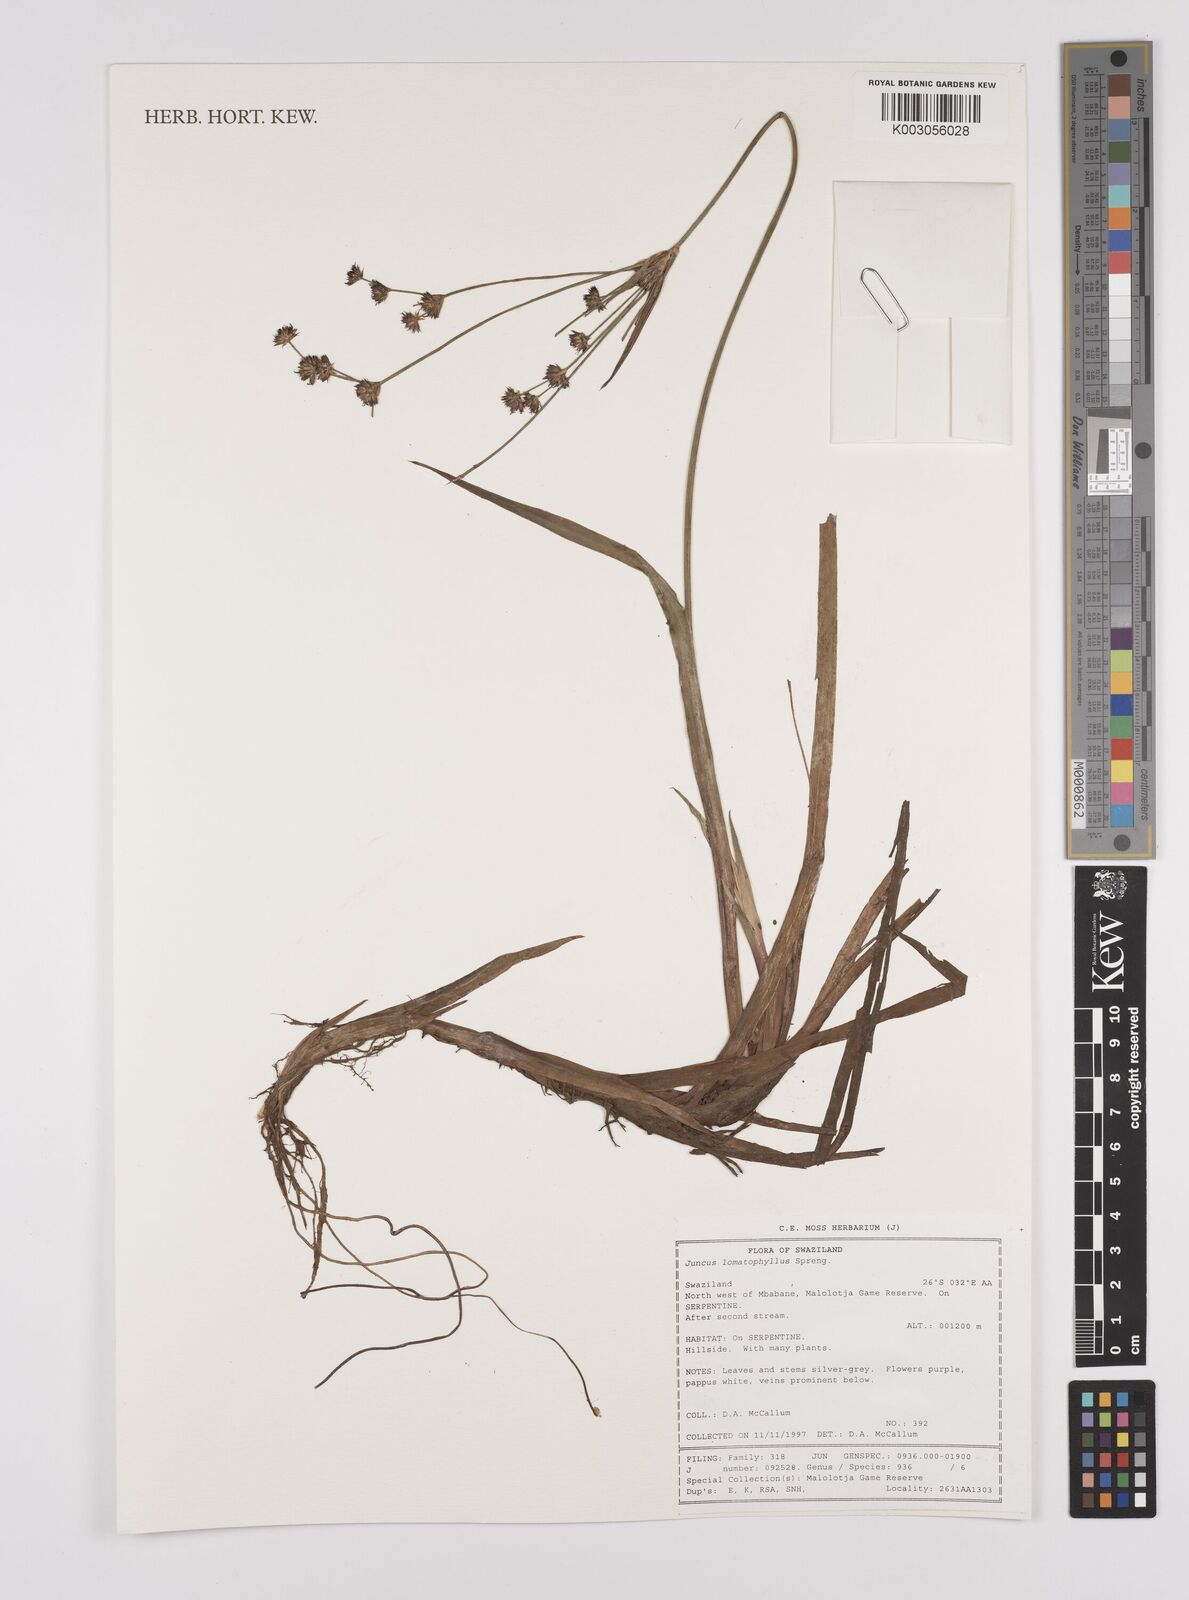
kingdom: Plantae
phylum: Tracheophyta
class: Liliopsida
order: Poales
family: Juncaceae
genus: Juncus
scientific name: Juncus lomatophyllus
